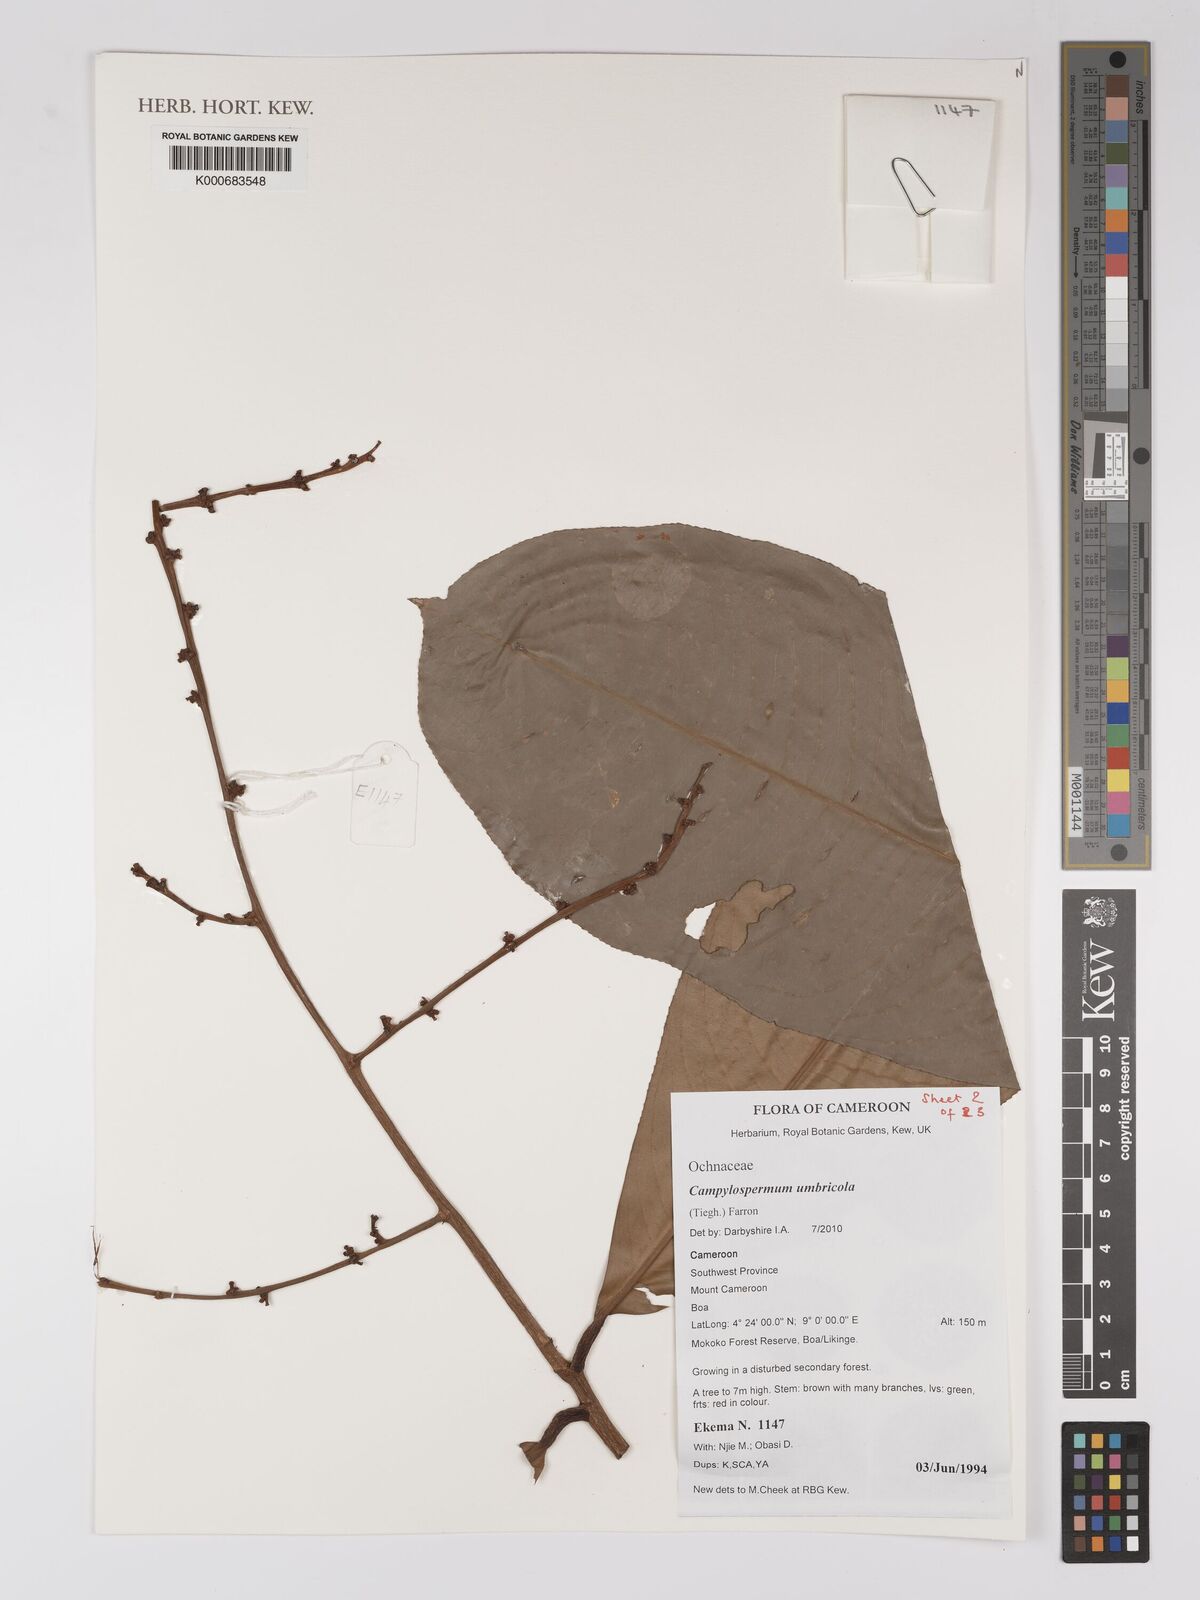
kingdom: Plantae
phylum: Tracheophyta
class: Magnoliopsida
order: Malpighiales
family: Ochnaceae
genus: Campylospermum
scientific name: Campylospermum umbricola
